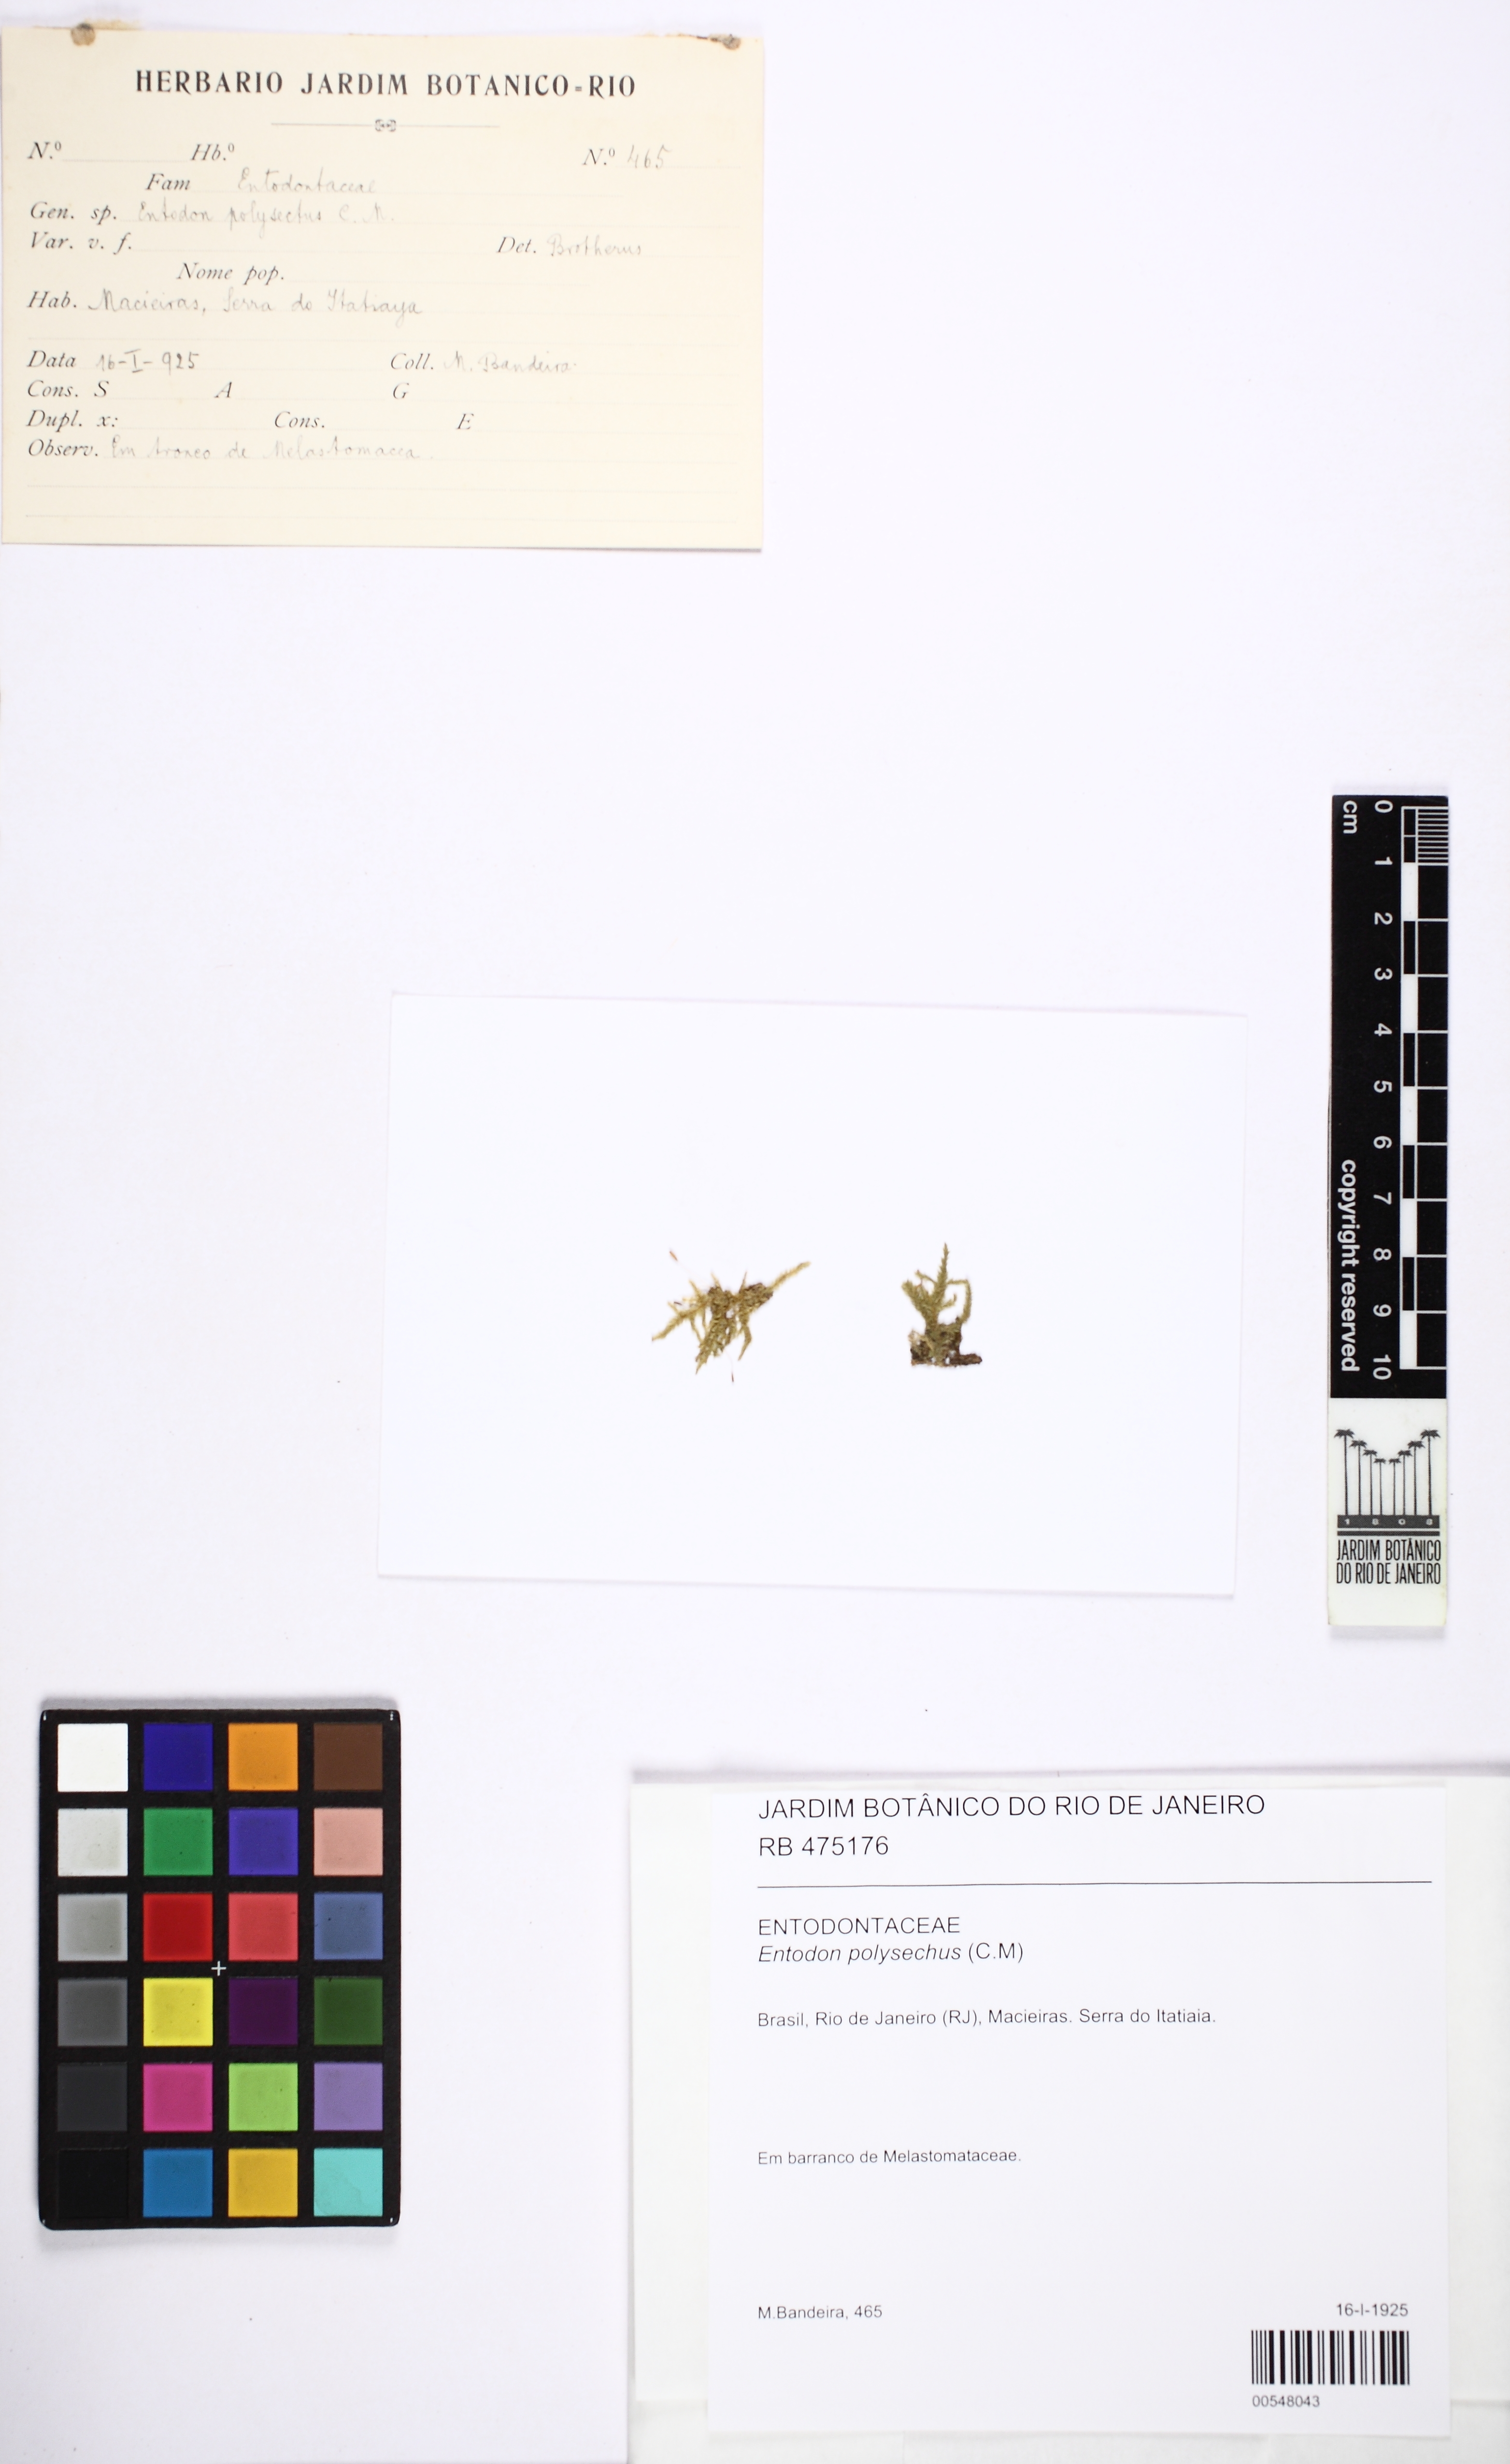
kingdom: Plantae
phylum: Bryophyta
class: Bryopsida
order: Hypnales
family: Entodontaceae
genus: Entodon
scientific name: Entodon jamesonii
